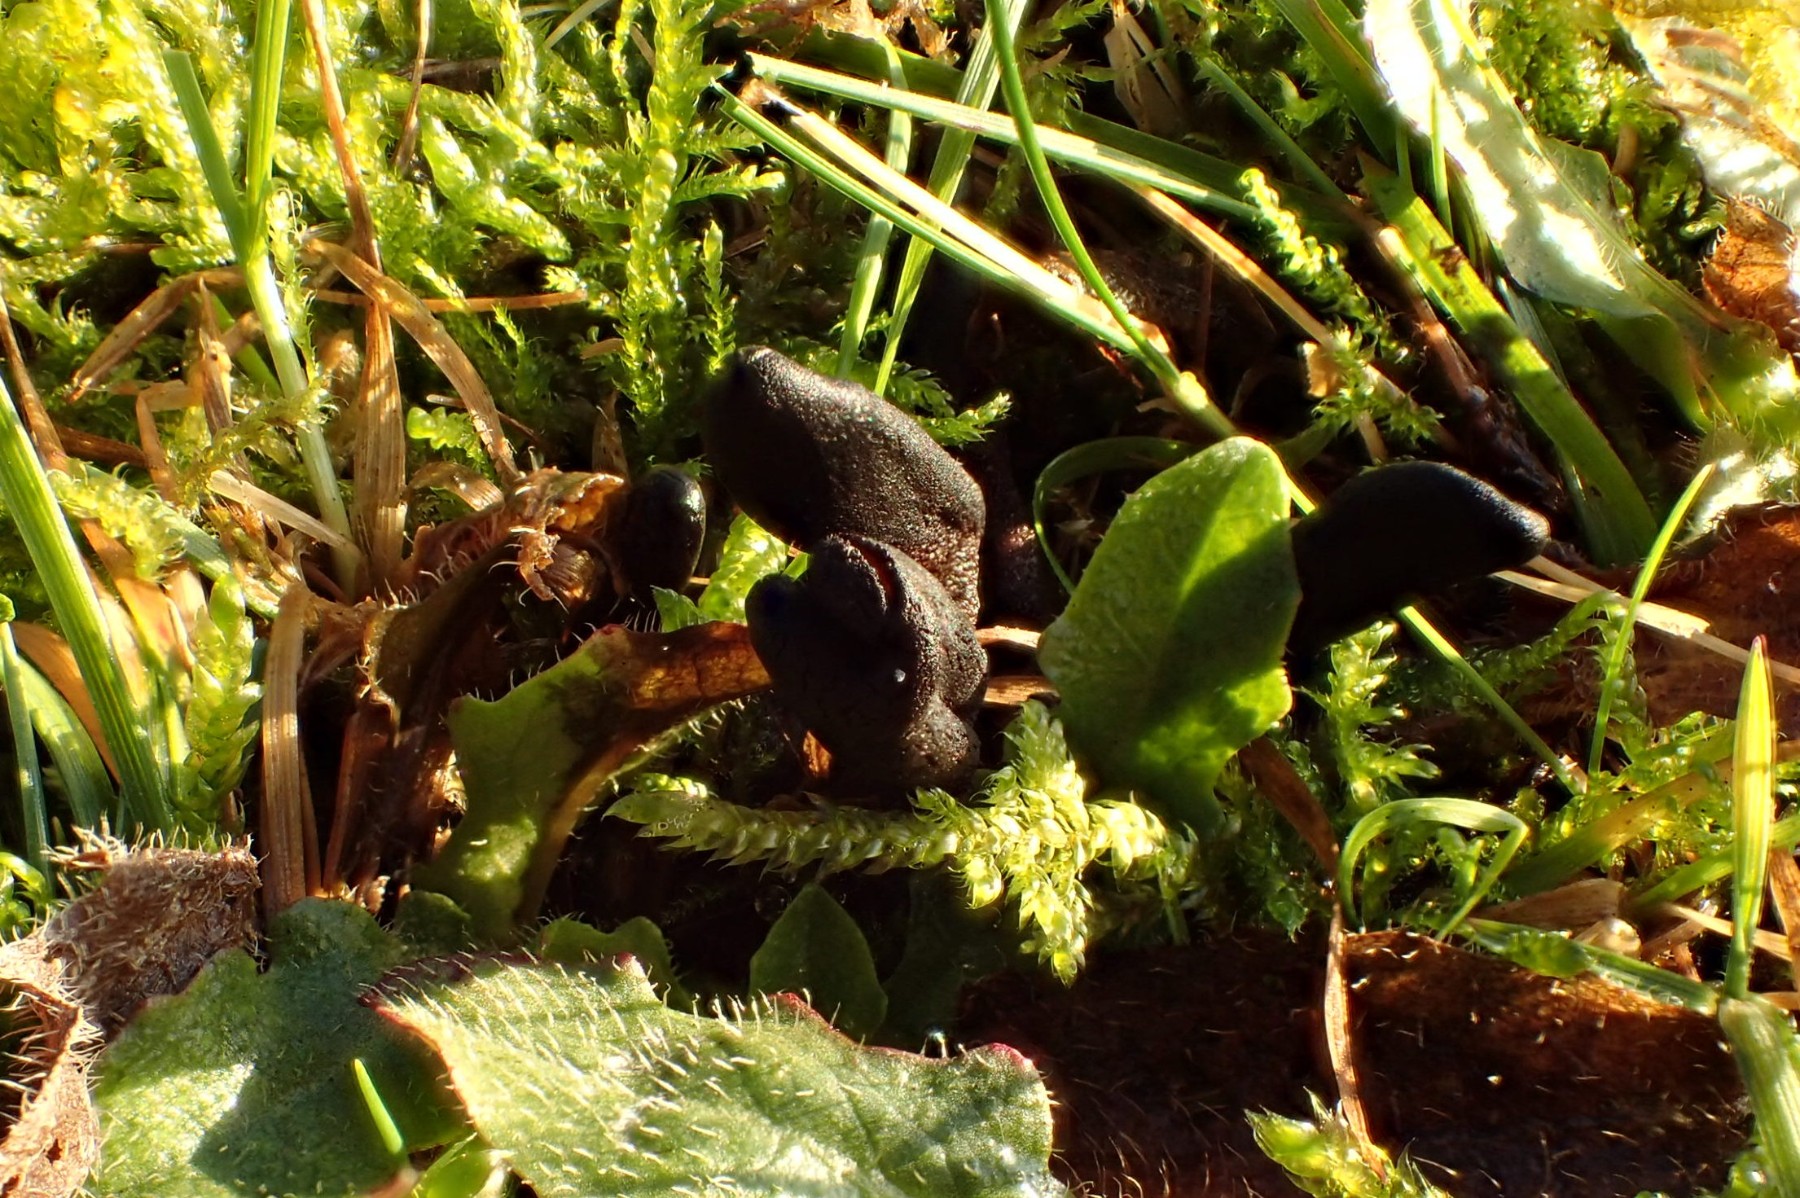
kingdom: Fungi
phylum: Ascomycota
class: Geoglossomycetes
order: Geoglossales
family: Geoglossaceae
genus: Hemileucoglossum
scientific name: Hemileucoglossum elongatum
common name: småsporet jordtunge
